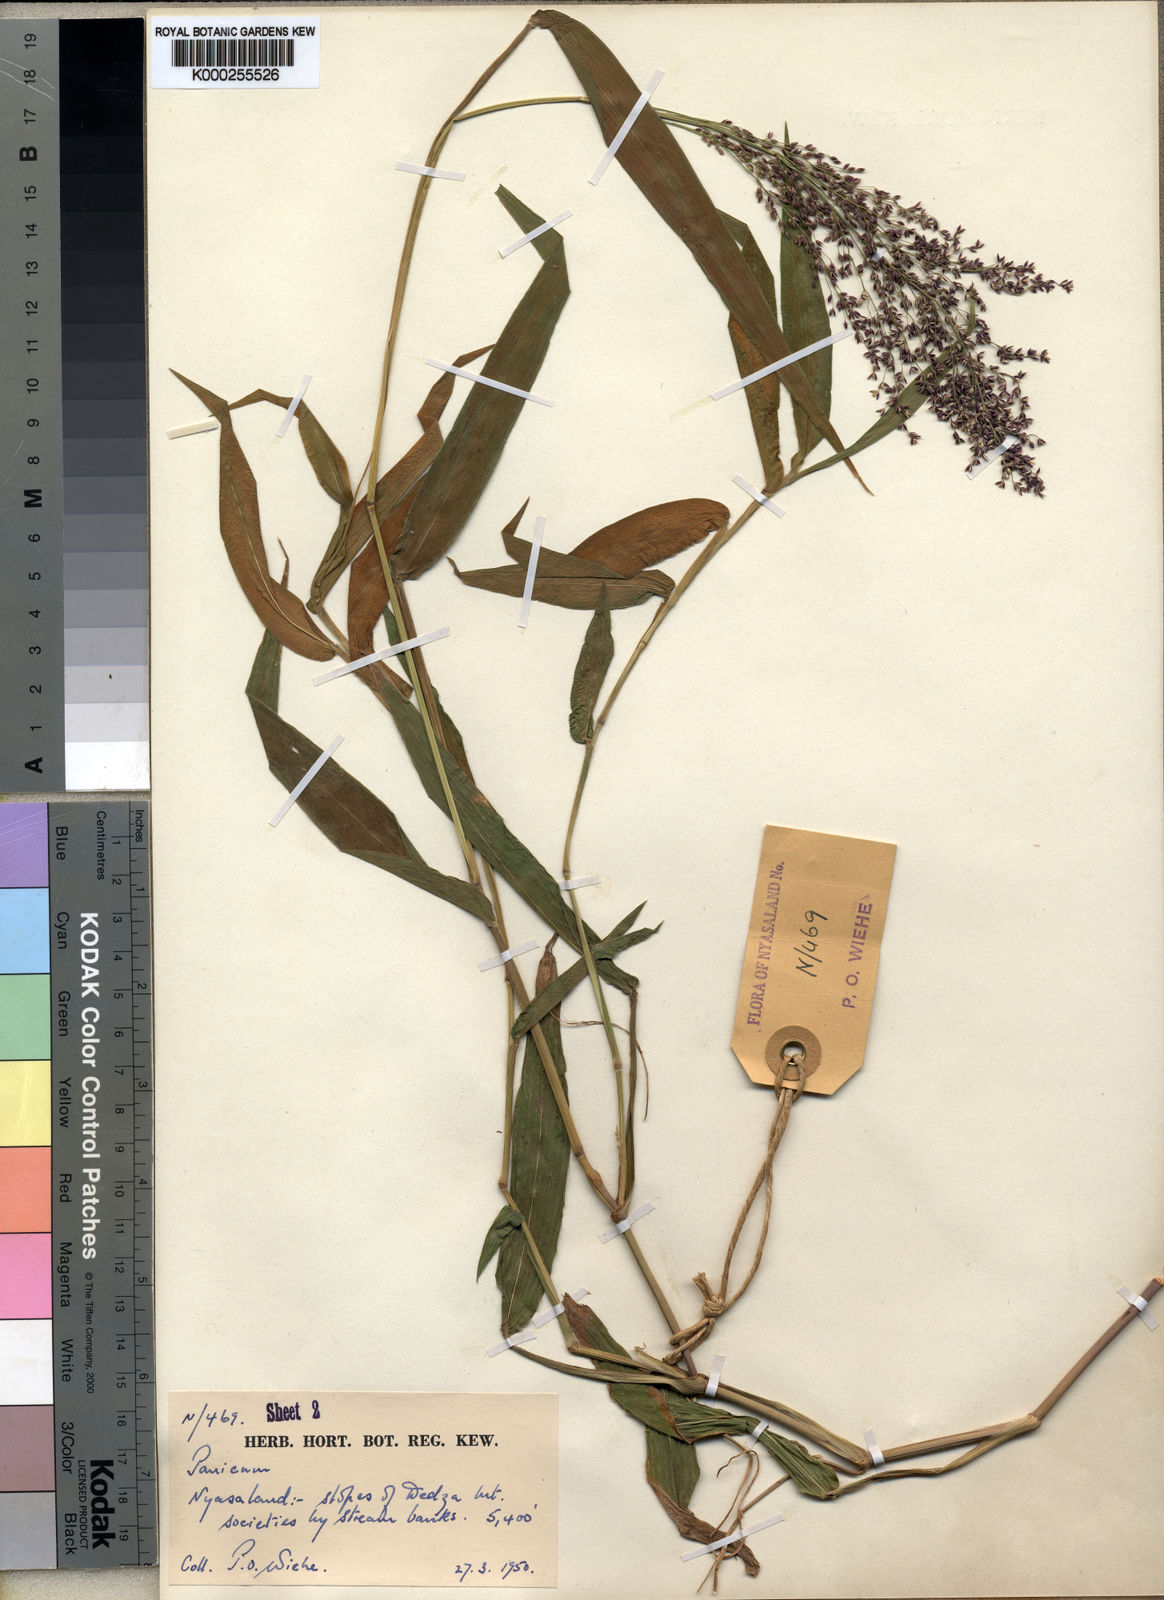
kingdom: Plantae
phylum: Tracheophyta
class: Liliopsida
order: Poales
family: Poaceae
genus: Panicum
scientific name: Panicum wiehei
